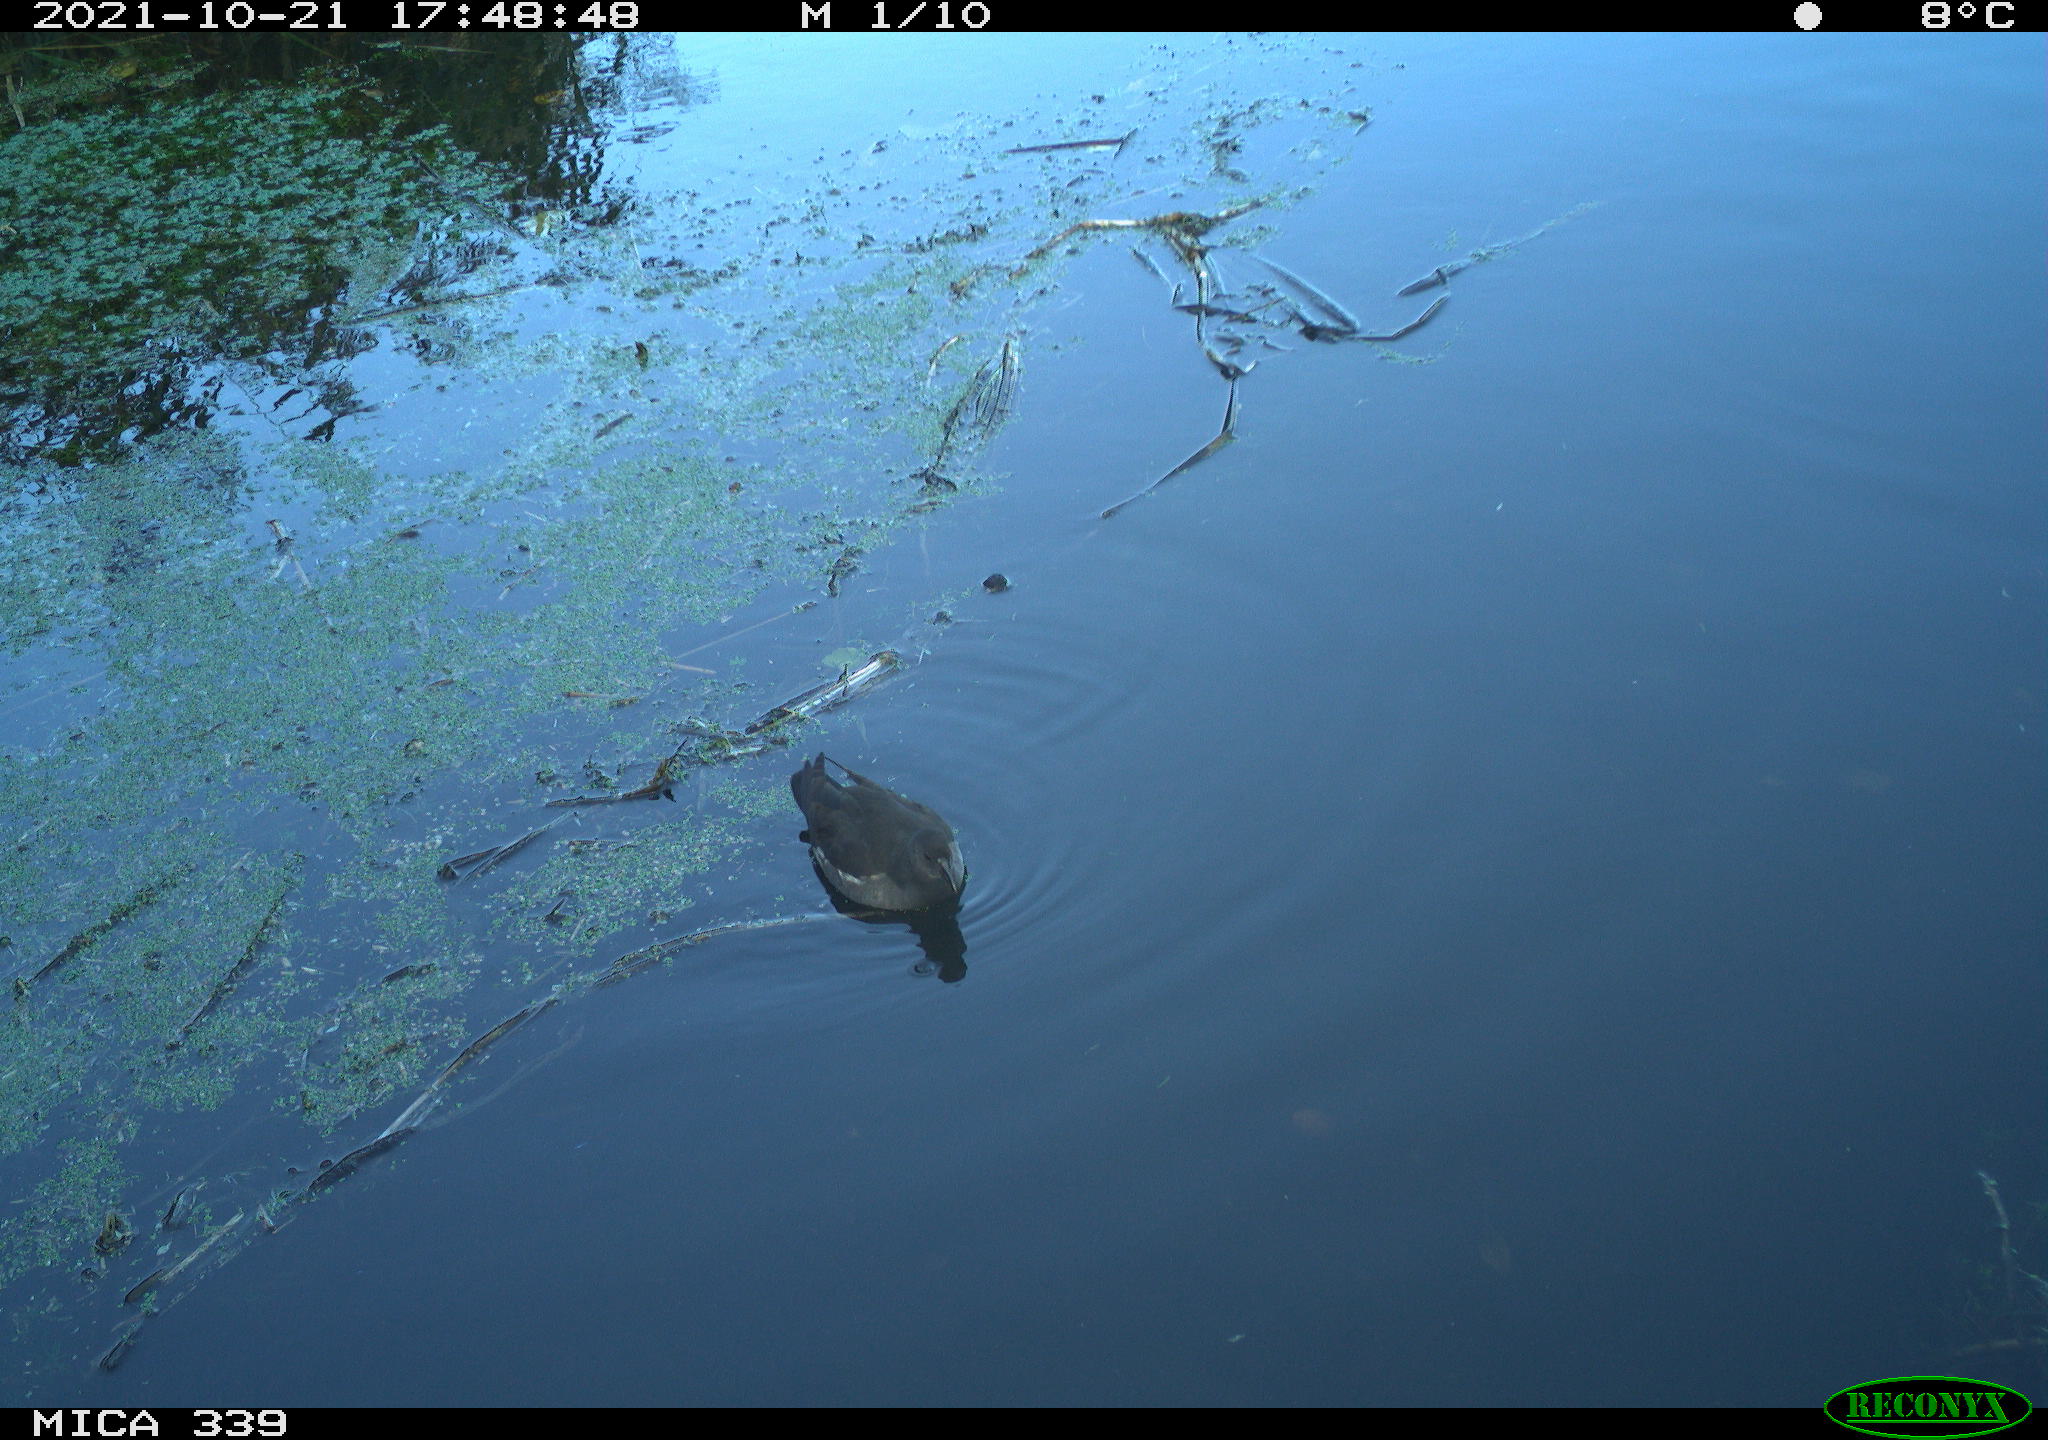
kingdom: Animalia
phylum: Chordata
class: Aves
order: Gruiformes
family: Rallidae
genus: Gallinula
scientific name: Gallinula chloropus
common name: Common moorhen
